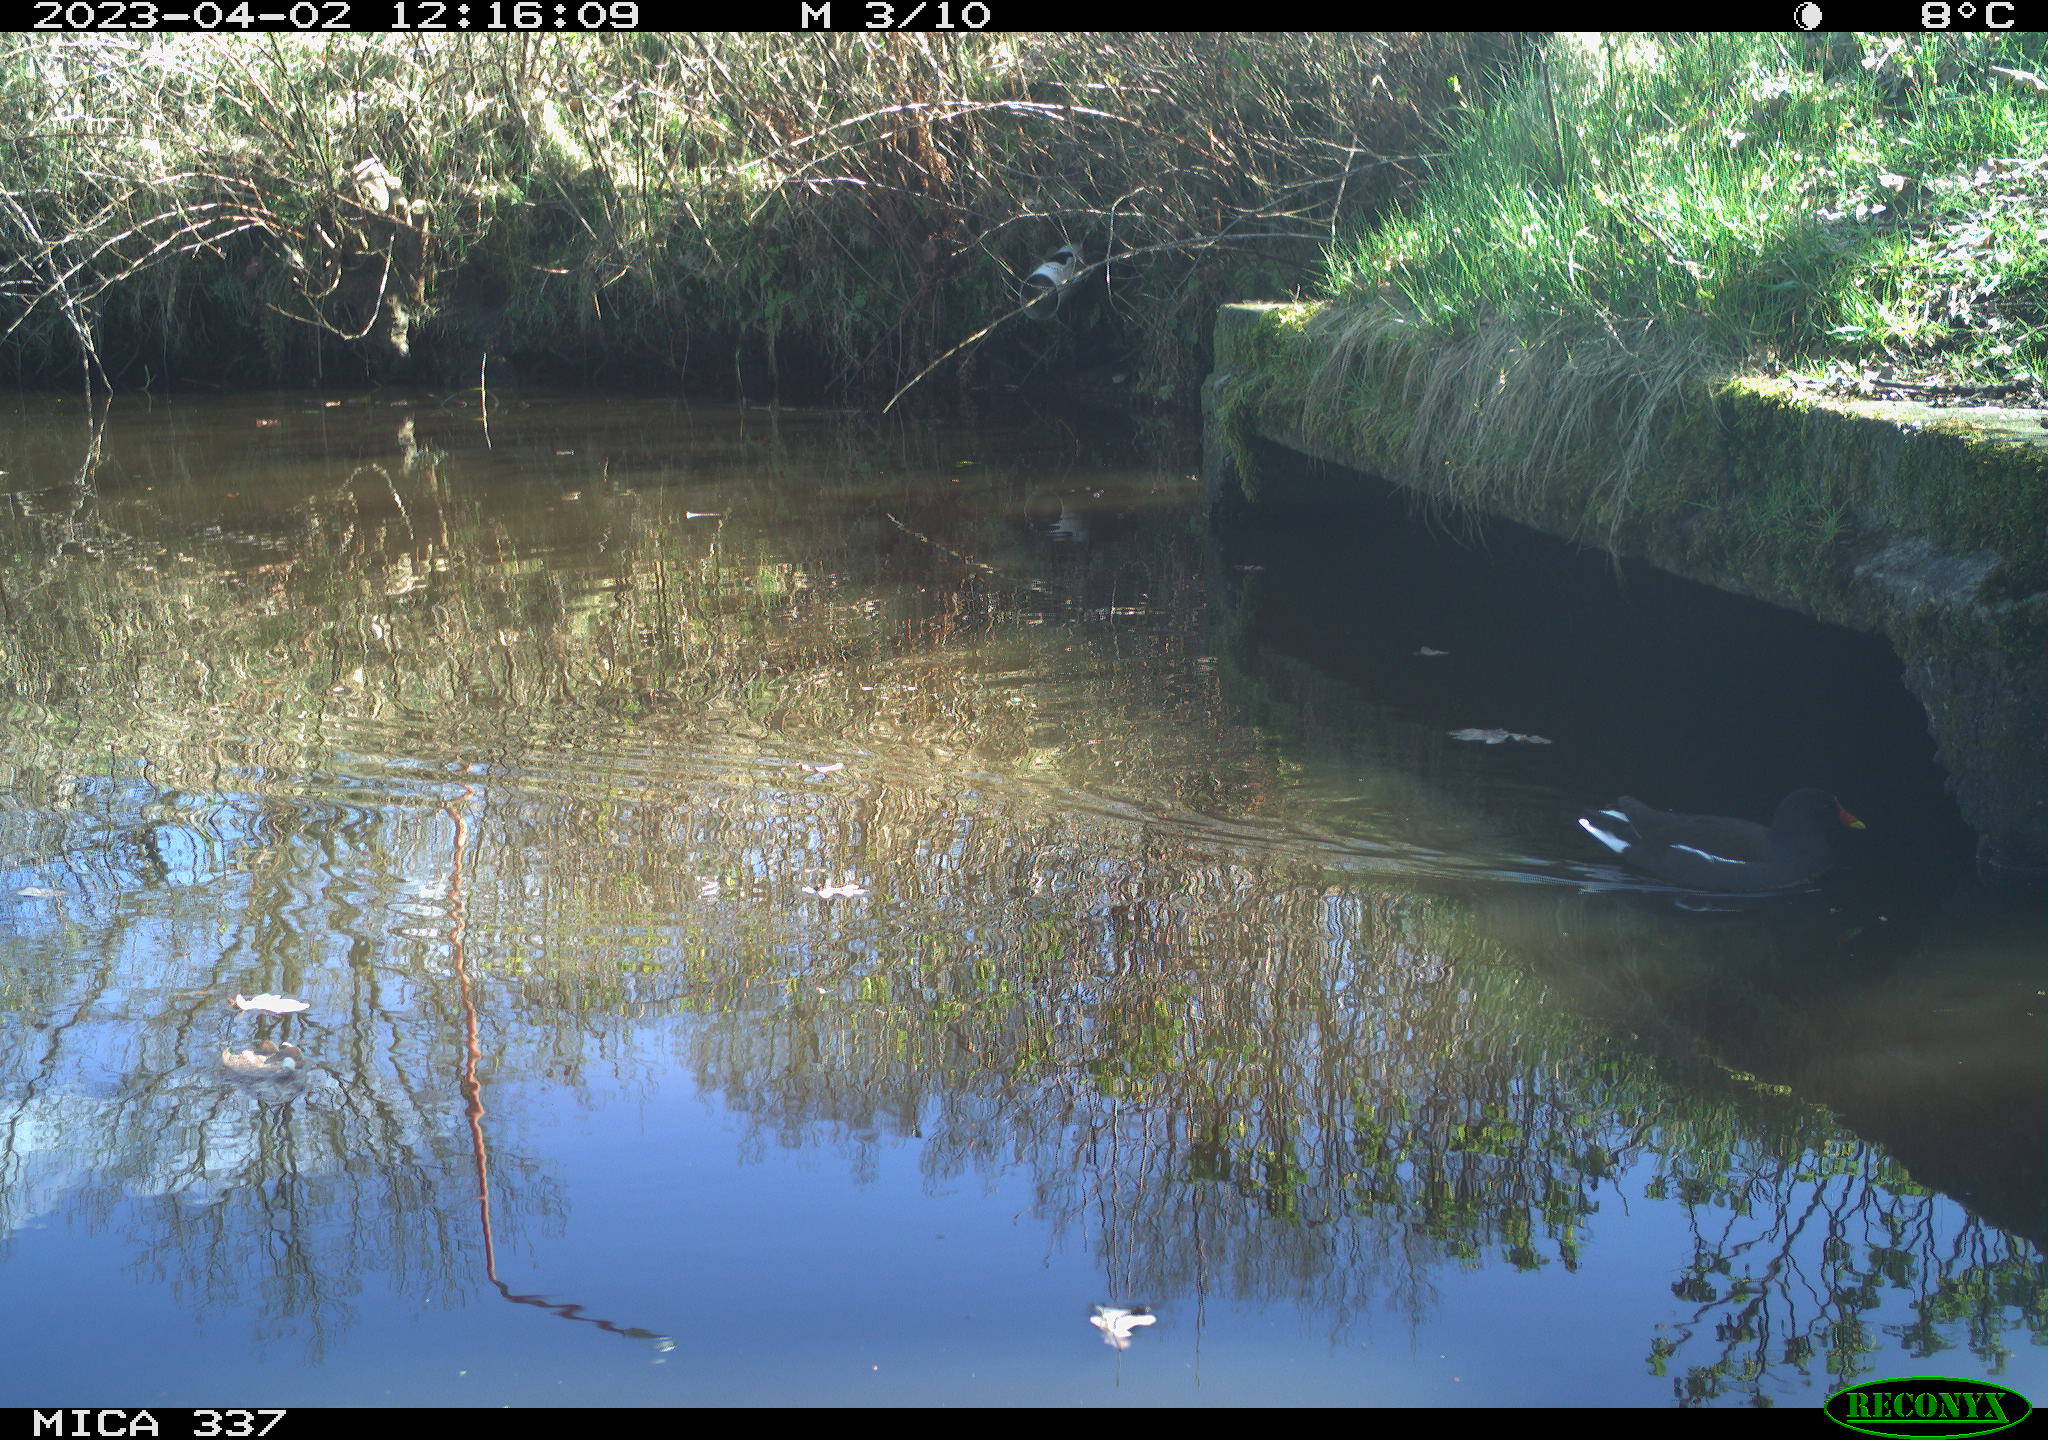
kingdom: Animalia
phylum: Chordata
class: Aves
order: Gruiformes
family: Rallidae
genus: Gallinula
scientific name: Gallinula chloropus
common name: Common moorhen
